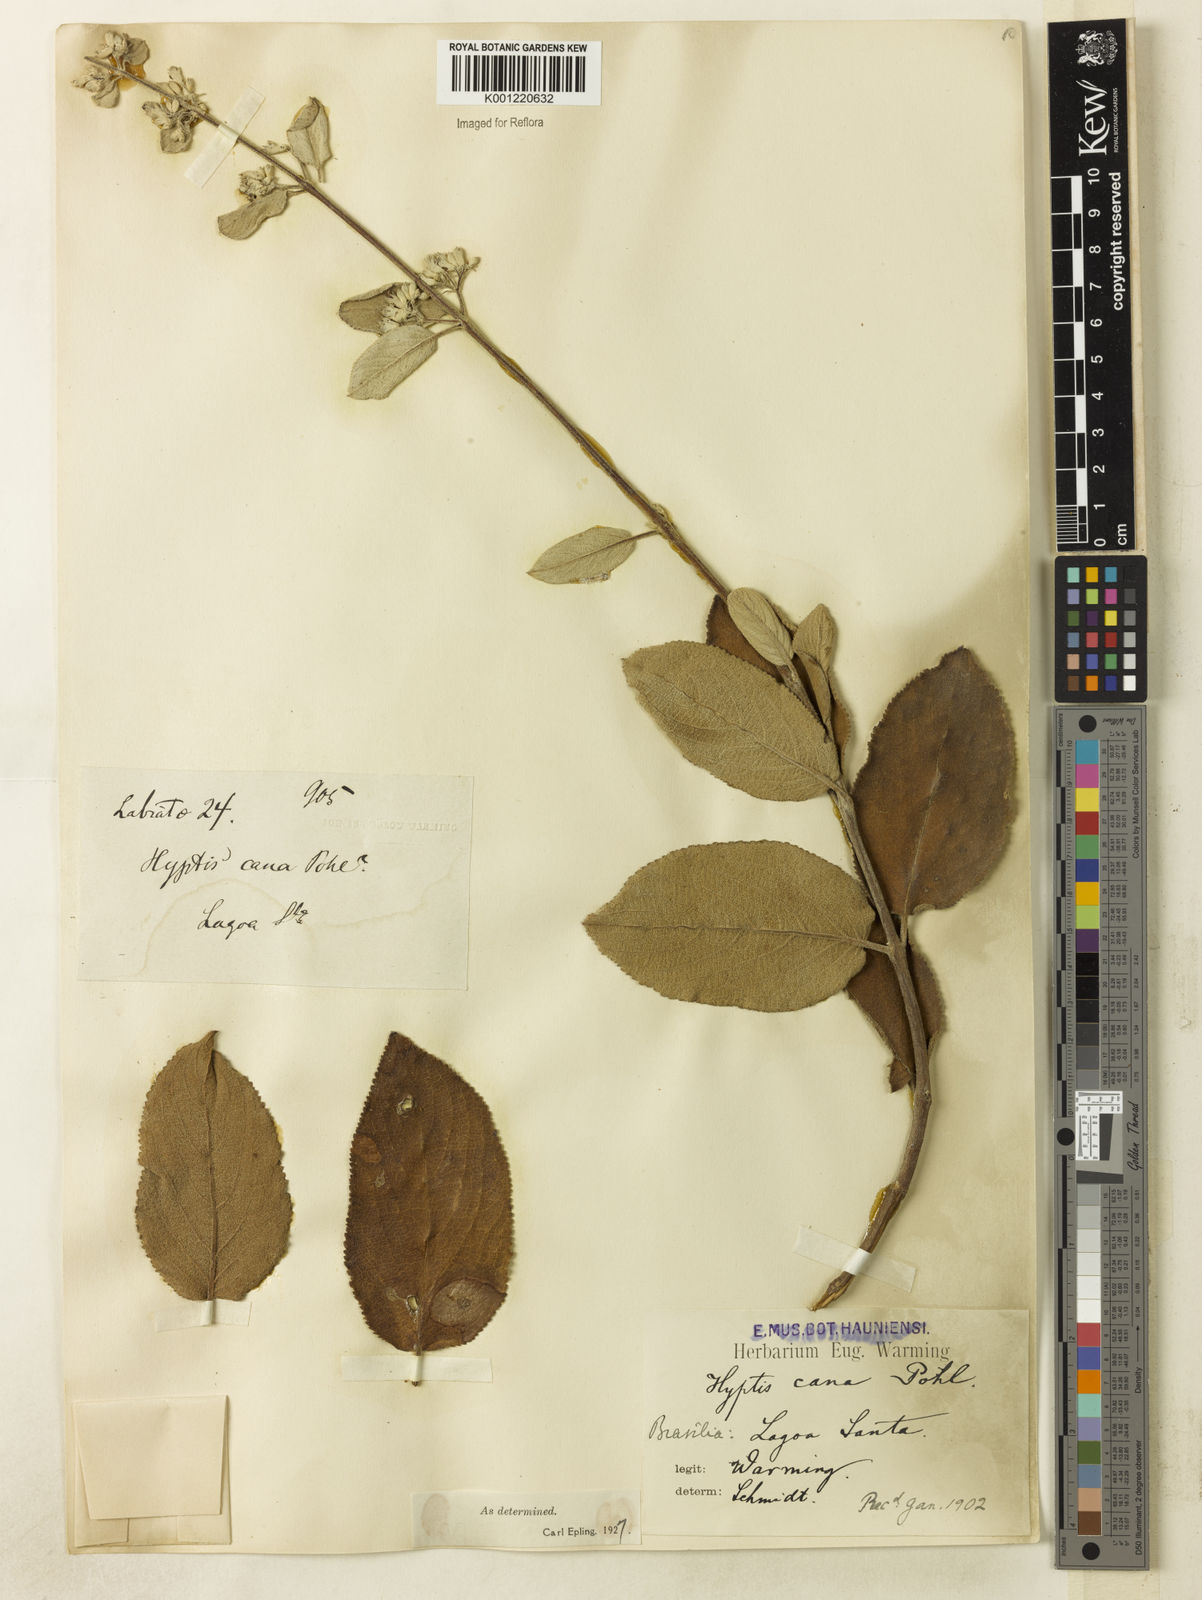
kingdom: Plantae
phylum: Tracheophyta
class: Magnoliopsida
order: Lamiales
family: Lamiaceae
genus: Hyptidendron
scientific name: Hyptidendron canum
